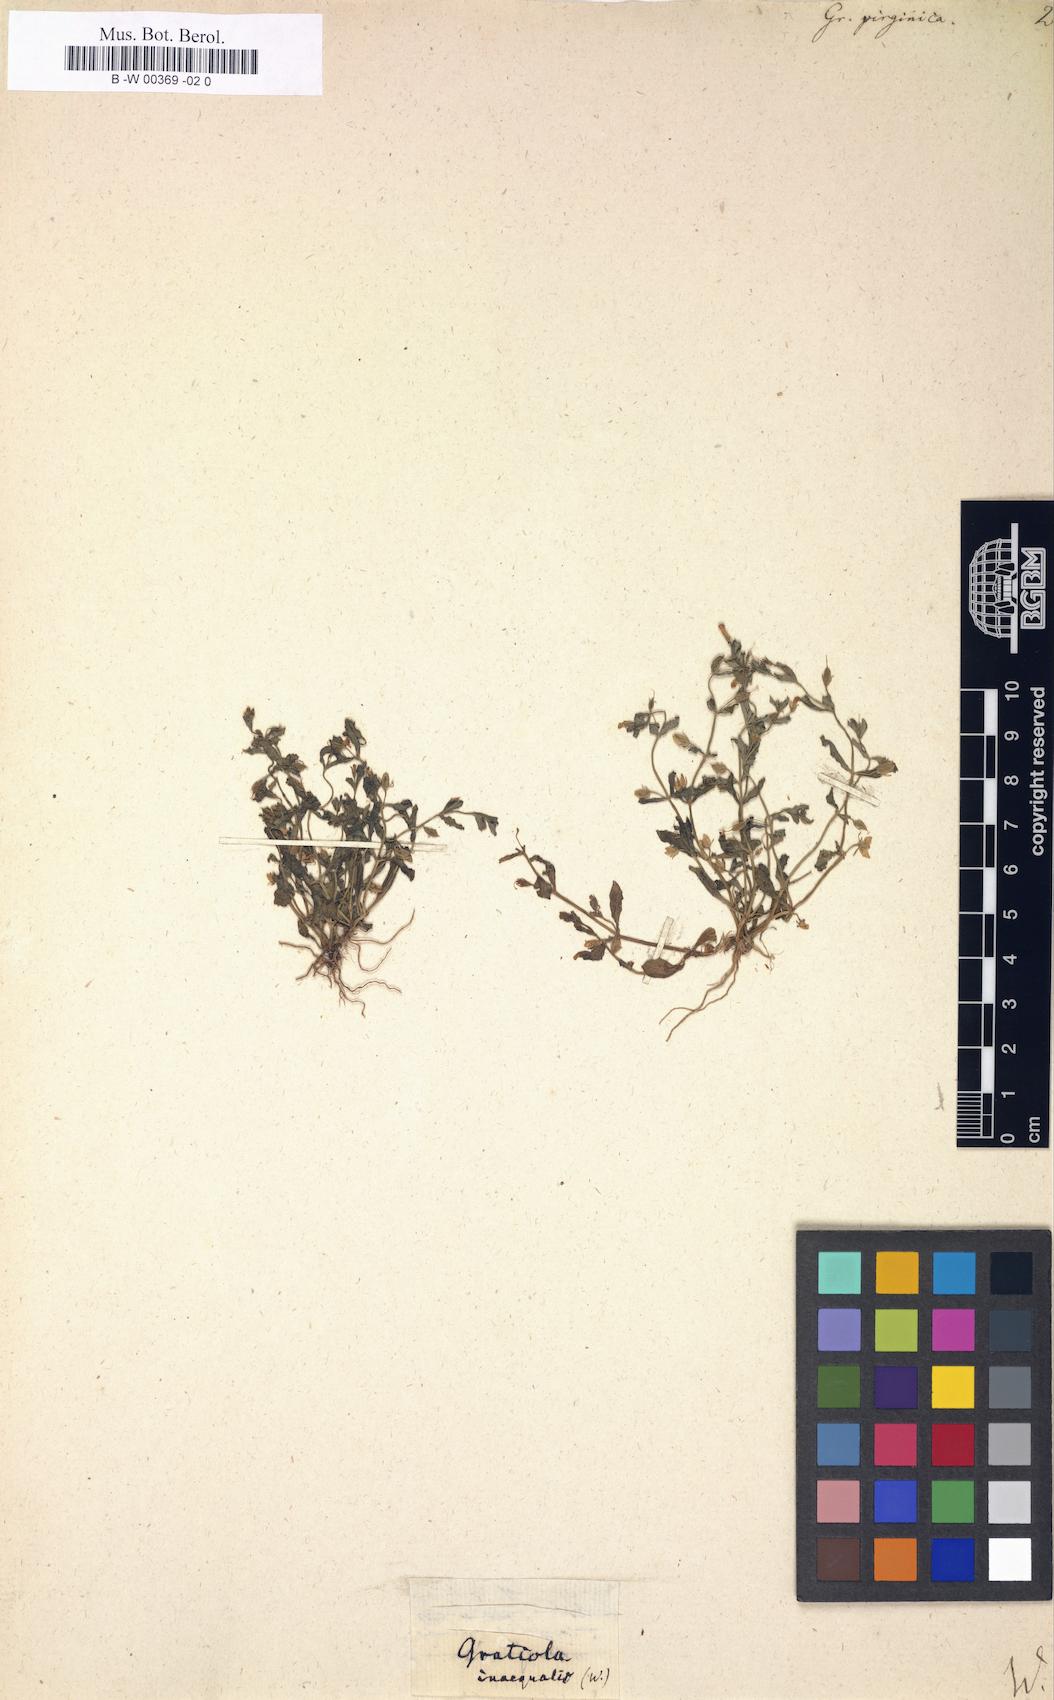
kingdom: Plantae
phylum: Tracheophyta
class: Magnoliopsida
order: Lamiales
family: Plantaginaceae
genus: Gratiola
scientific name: Gratiola virginiana
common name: Roundfruit hedgehyssop
